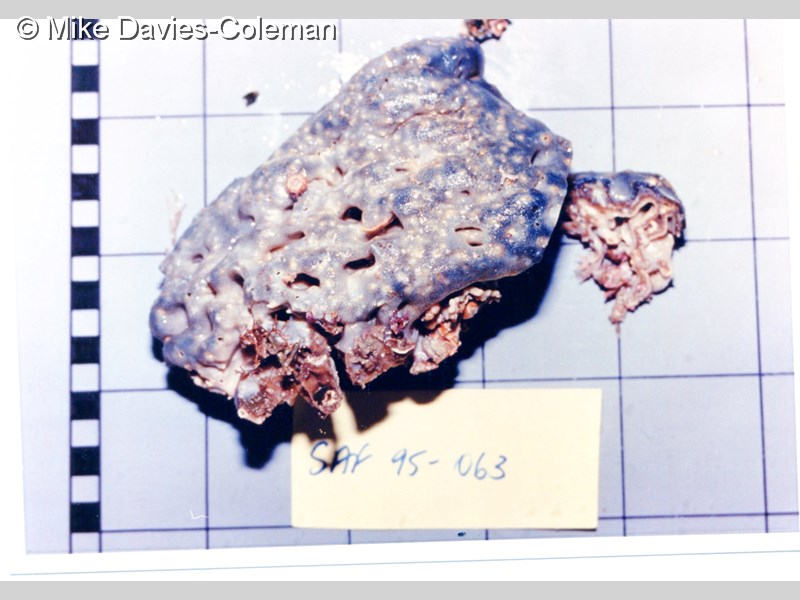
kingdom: Animalia
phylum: Chordata
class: Ascidiacea
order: Aplousobranchia
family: Didemnidae
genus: Trididemnum
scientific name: Trididemnum cerebriforme
